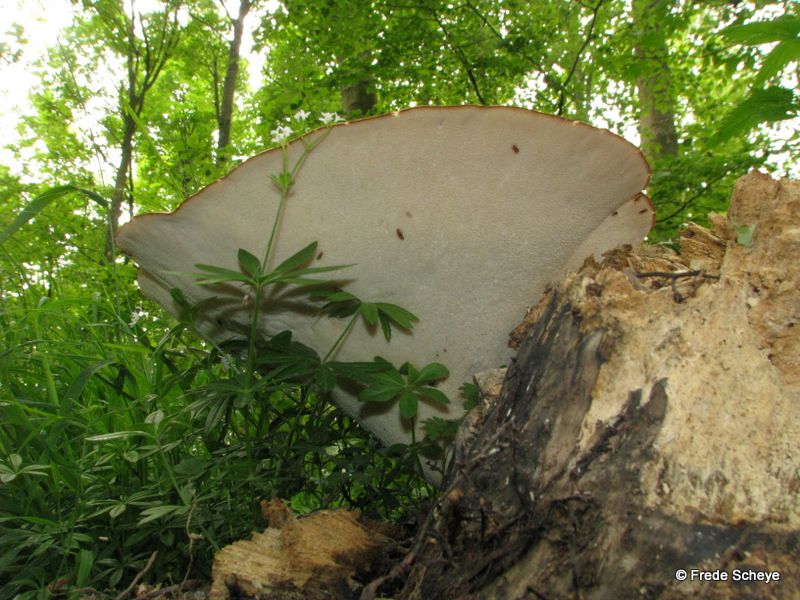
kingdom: Fungi
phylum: Basidiomycota
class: Agaricomycetes
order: Polyporales
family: Polyporaceae
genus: Cerioporus
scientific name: Cerioporus squamosus
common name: skællet stilkporesvamp
